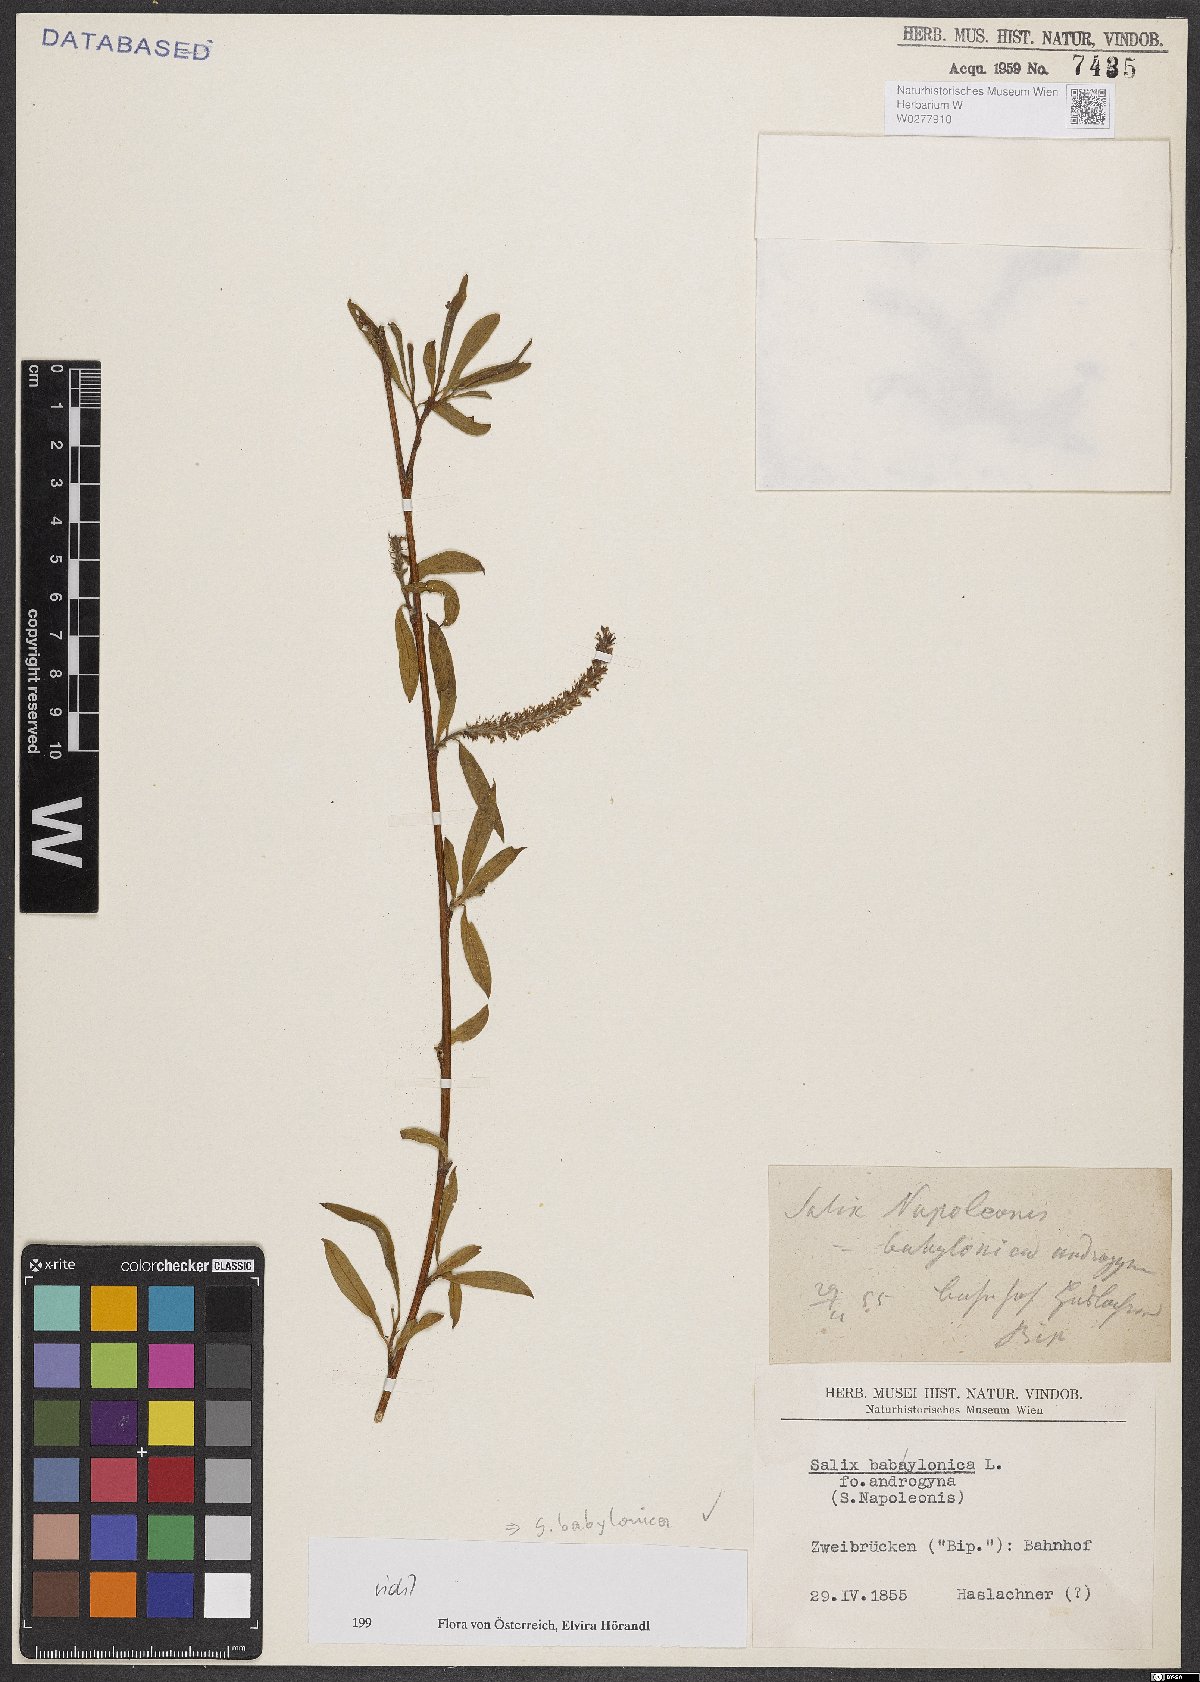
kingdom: Plantae
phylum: Tracheophyta
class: Magnoliopsida
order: Malpighiales
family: Salicaceae
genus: Salix
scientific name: Salix babylonica
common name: Weeping willow
